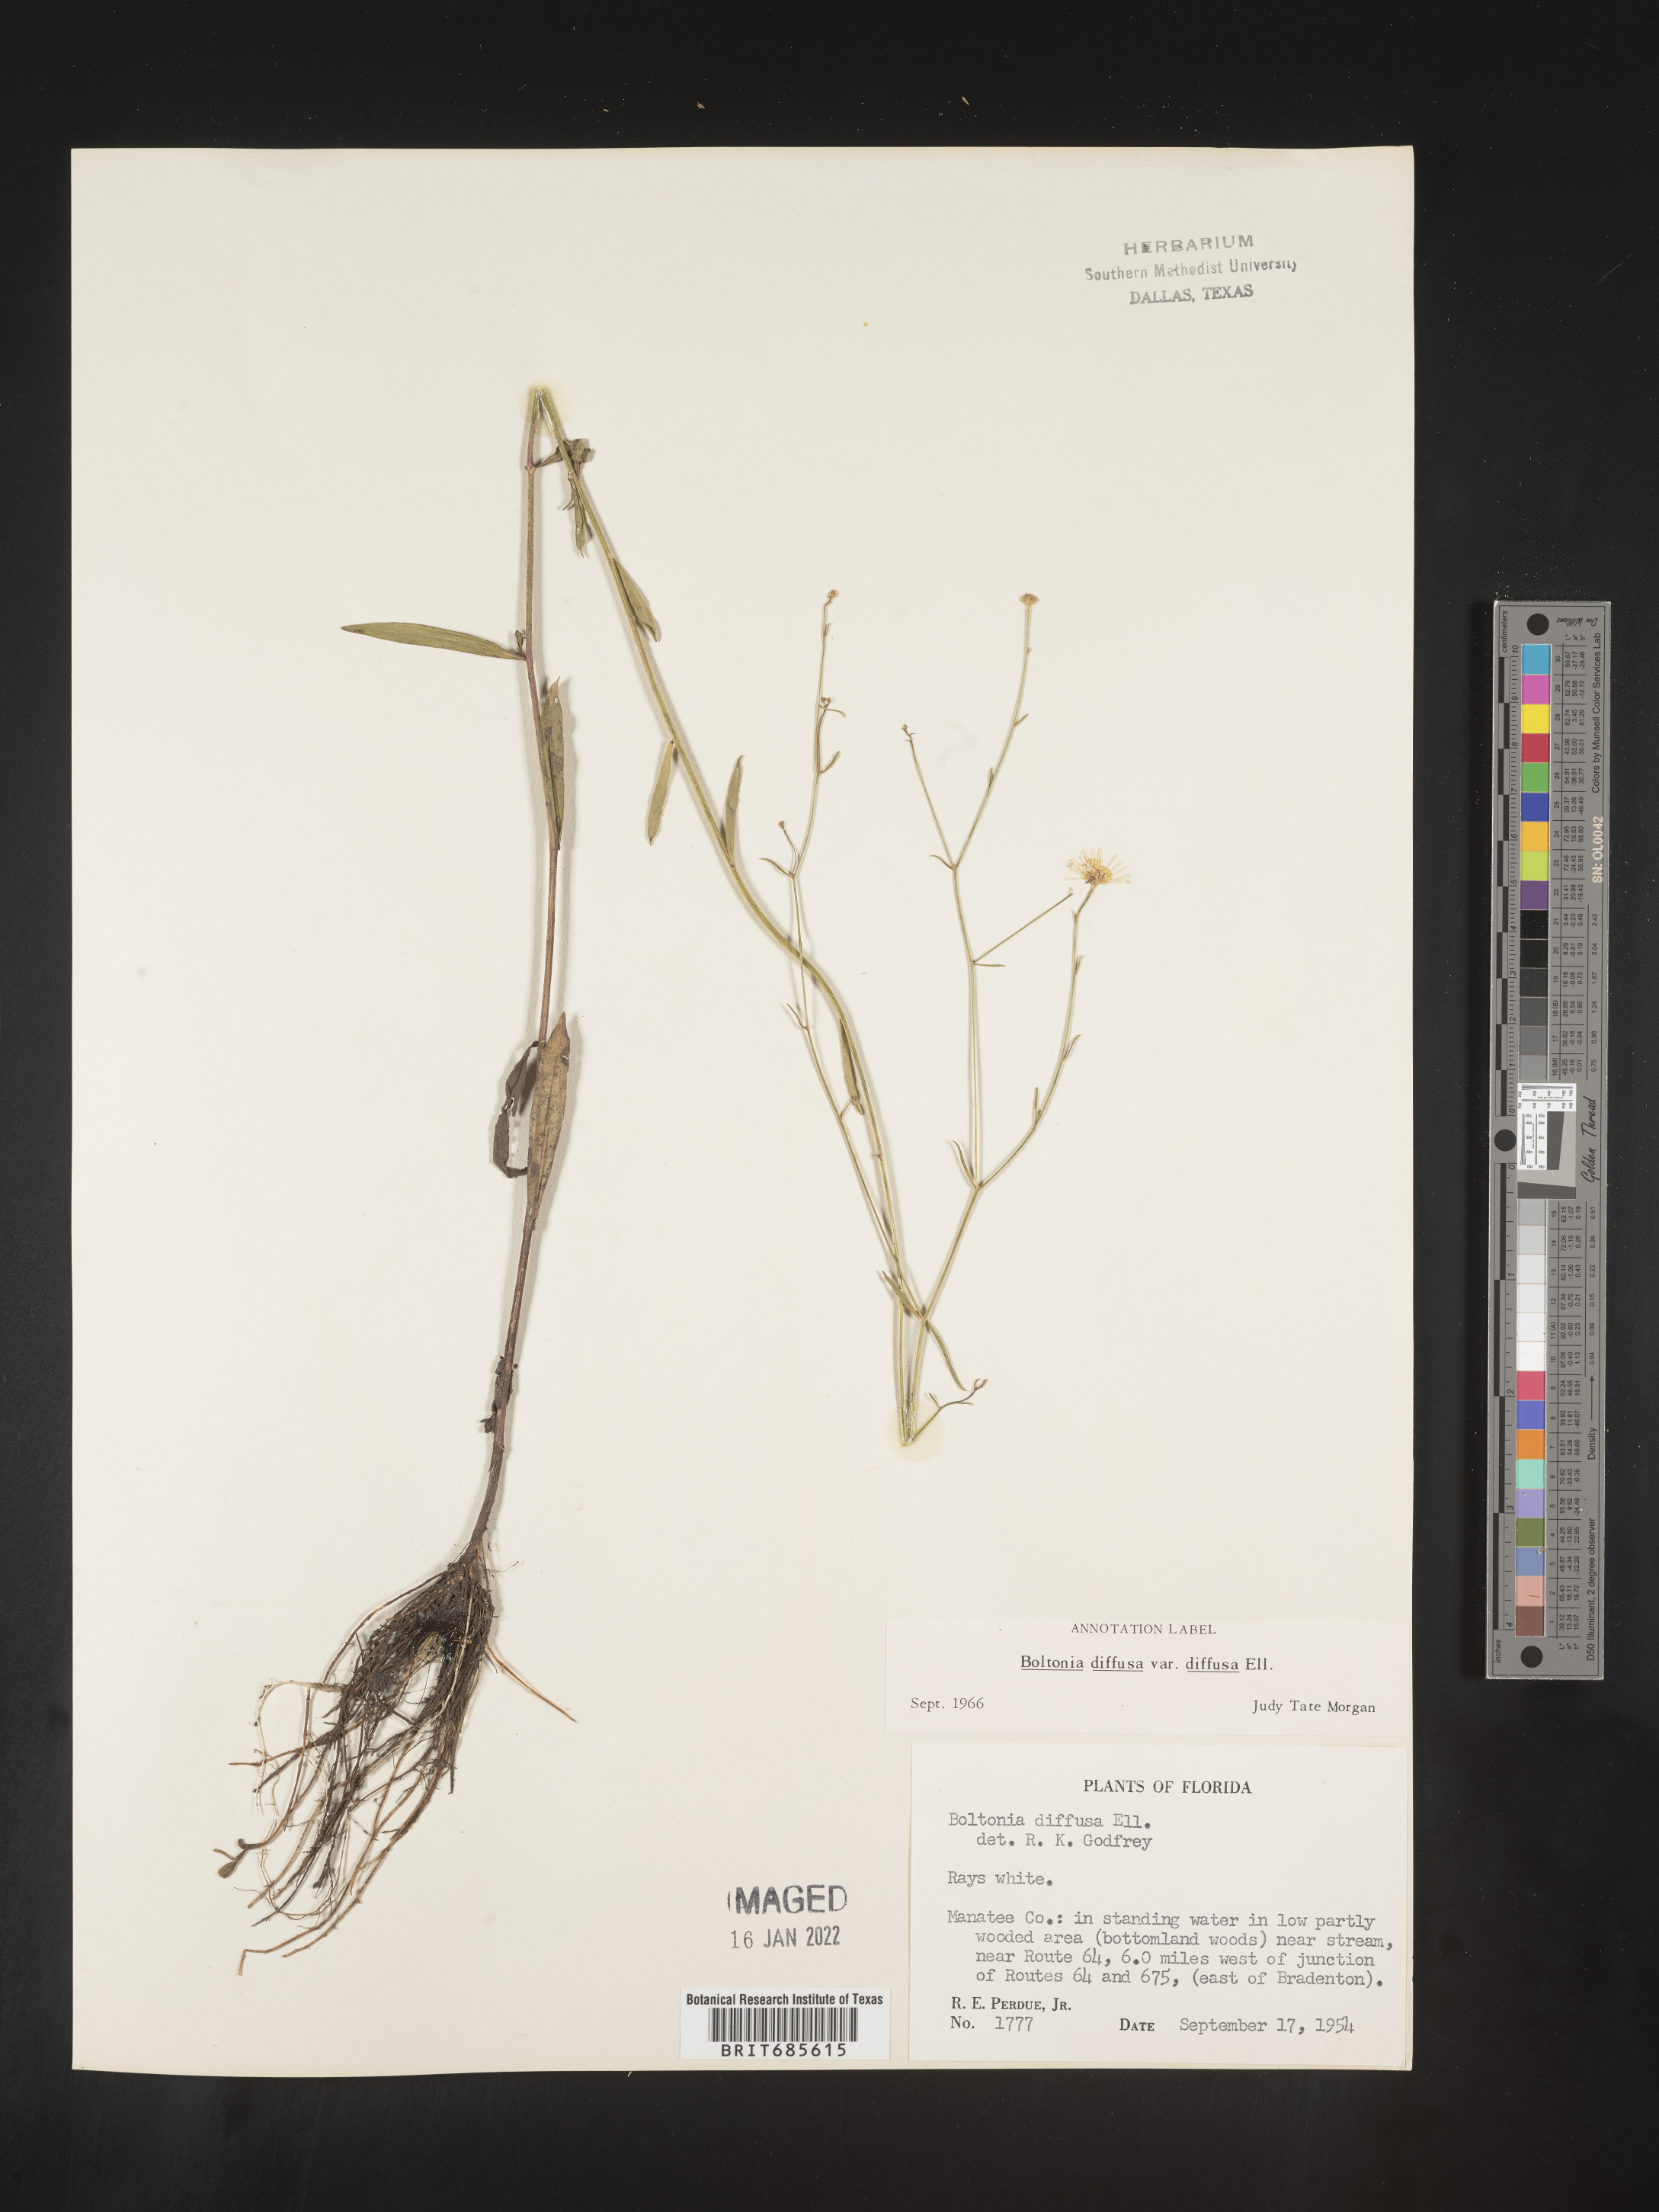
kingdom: Plantae
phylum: Tracheophyta
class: Magnoliopsida
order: Asterales
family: Asteraceae
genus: Boltonia
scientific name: Boltonia diffusa
